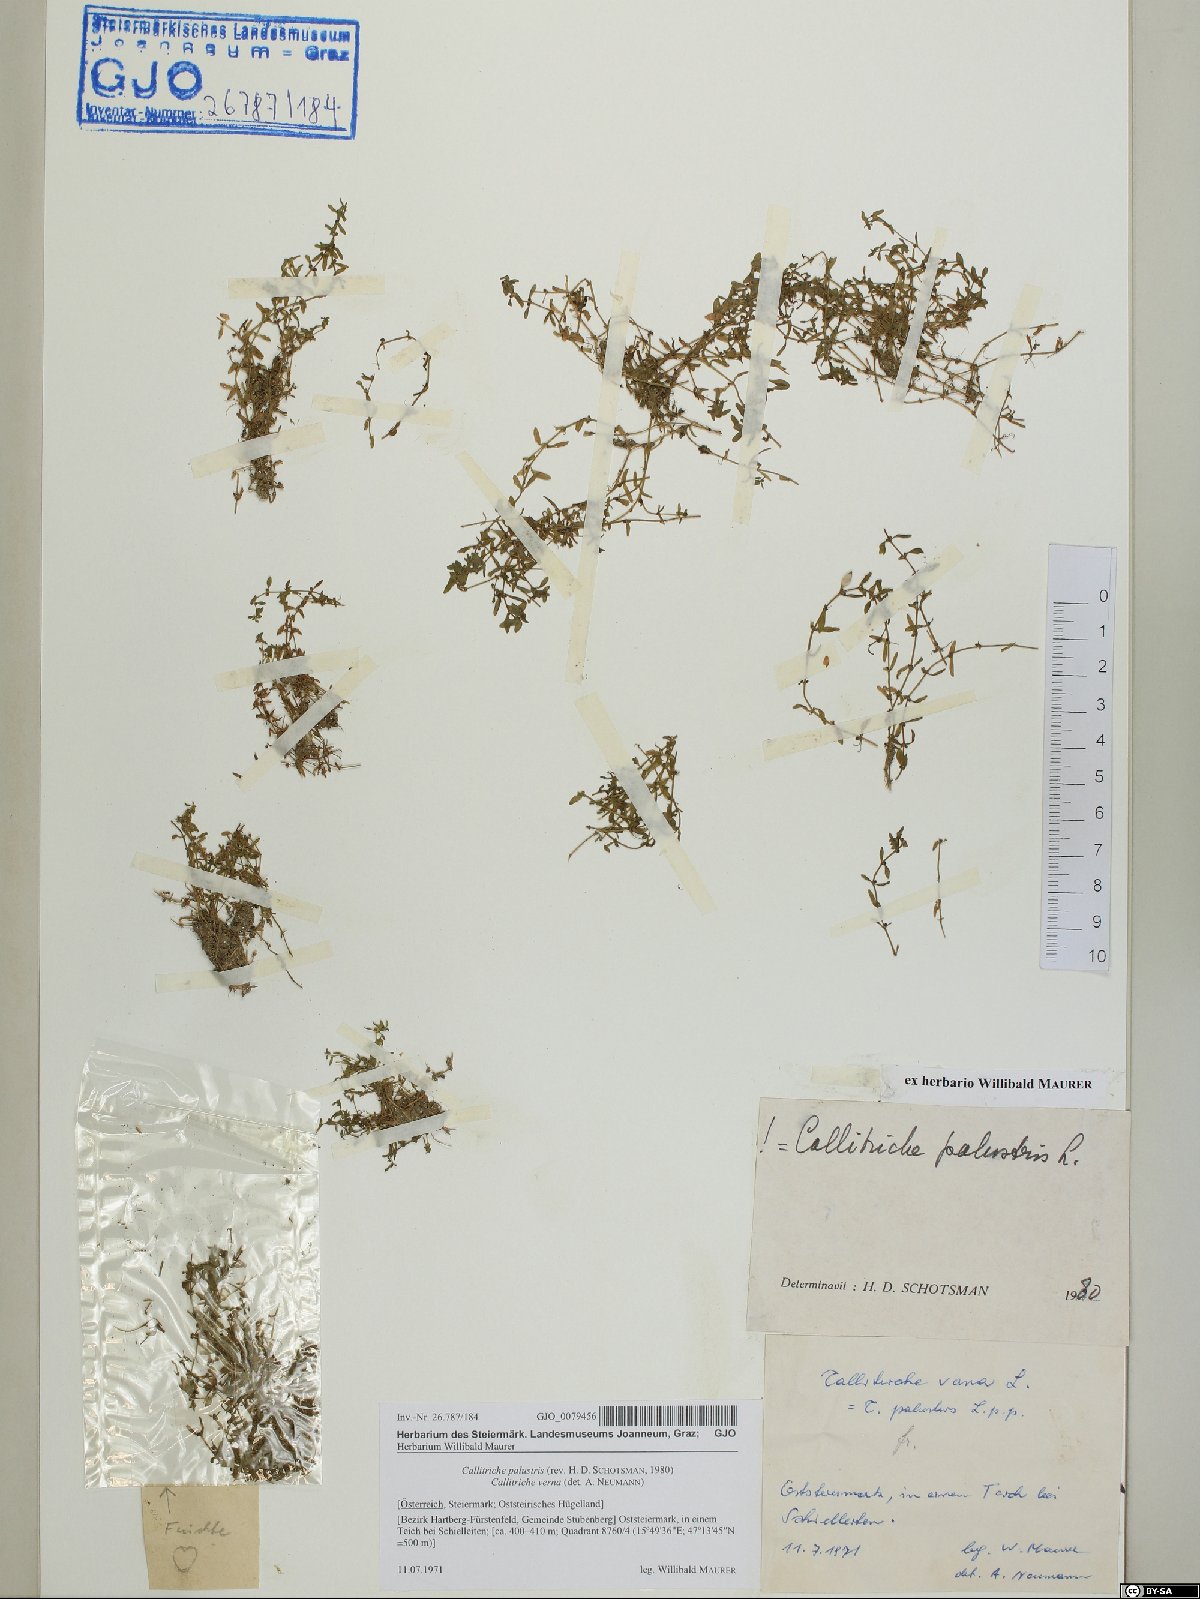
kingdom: Plantae
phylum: Tracheophyta
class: Magnoliopsida
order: Lamiales
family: Plantaginaceae
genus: Callitriche
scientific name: Callitriche palustris
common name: Spring water-starwort
